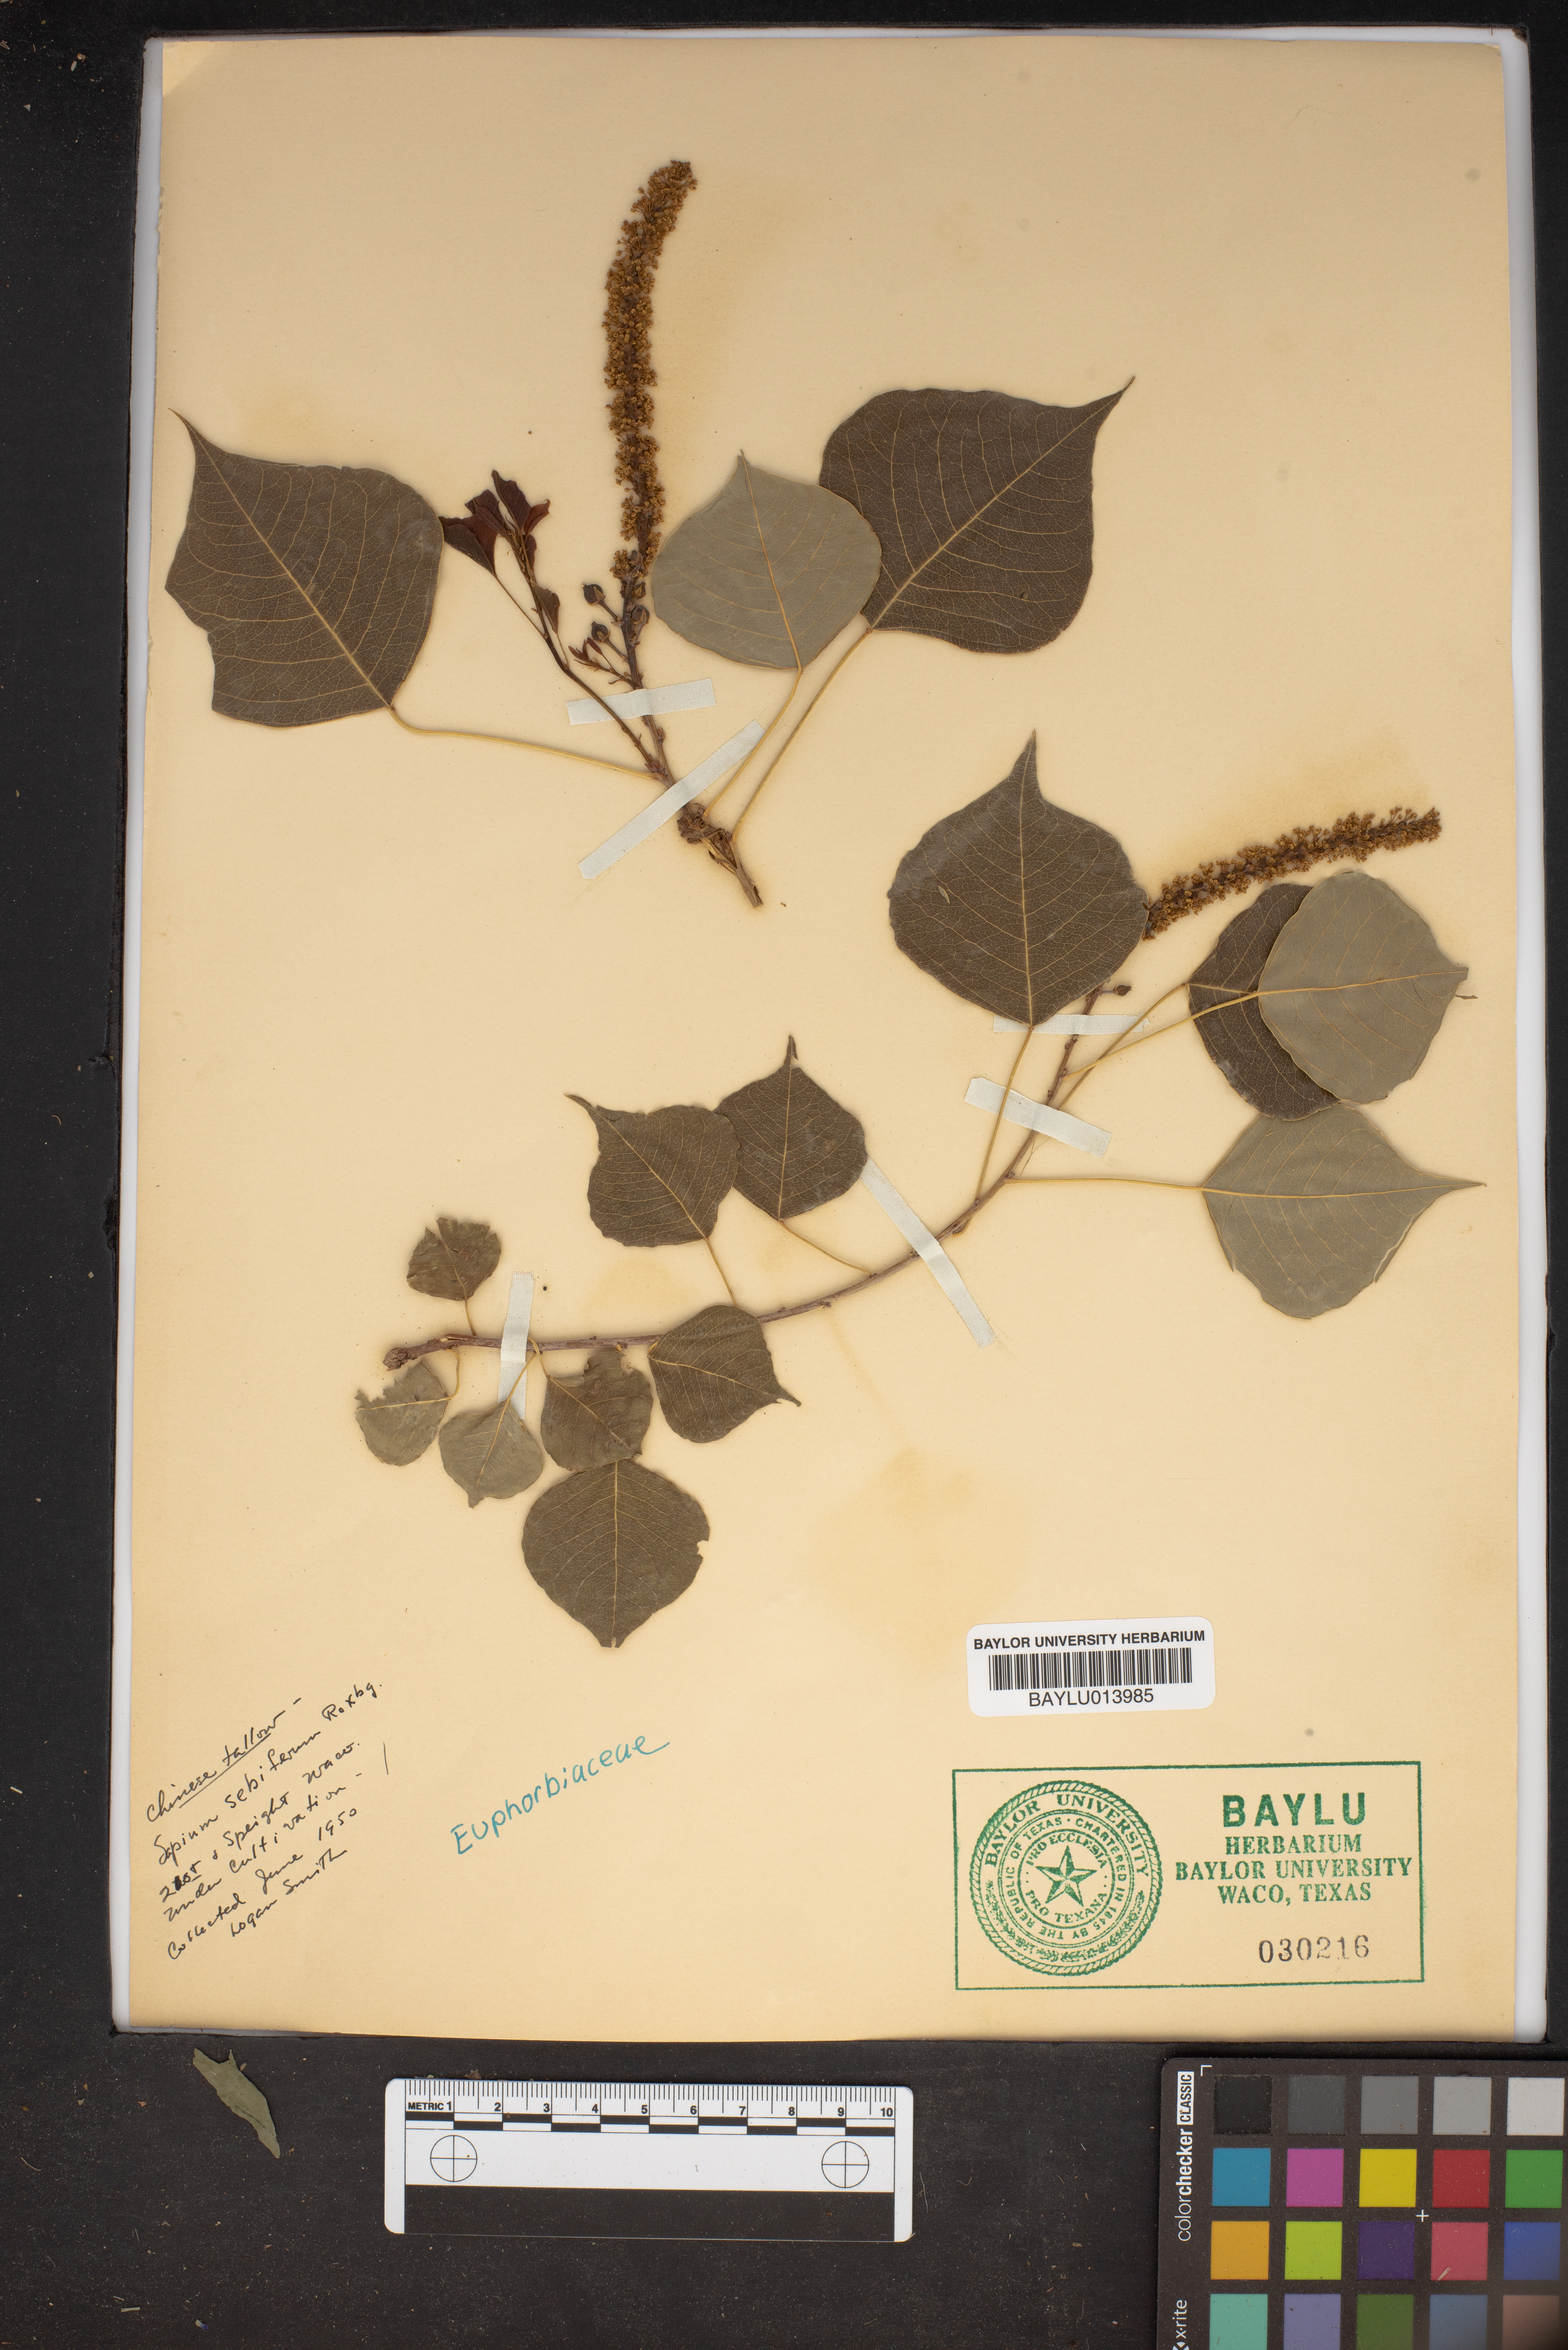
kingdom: Plantae
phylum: Tracheophyta
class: Magnoliopsida
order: Malpighiales
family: Euphorbiaceae
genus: Triadica
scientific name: Triadica sebifera
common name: Chinese tallow
